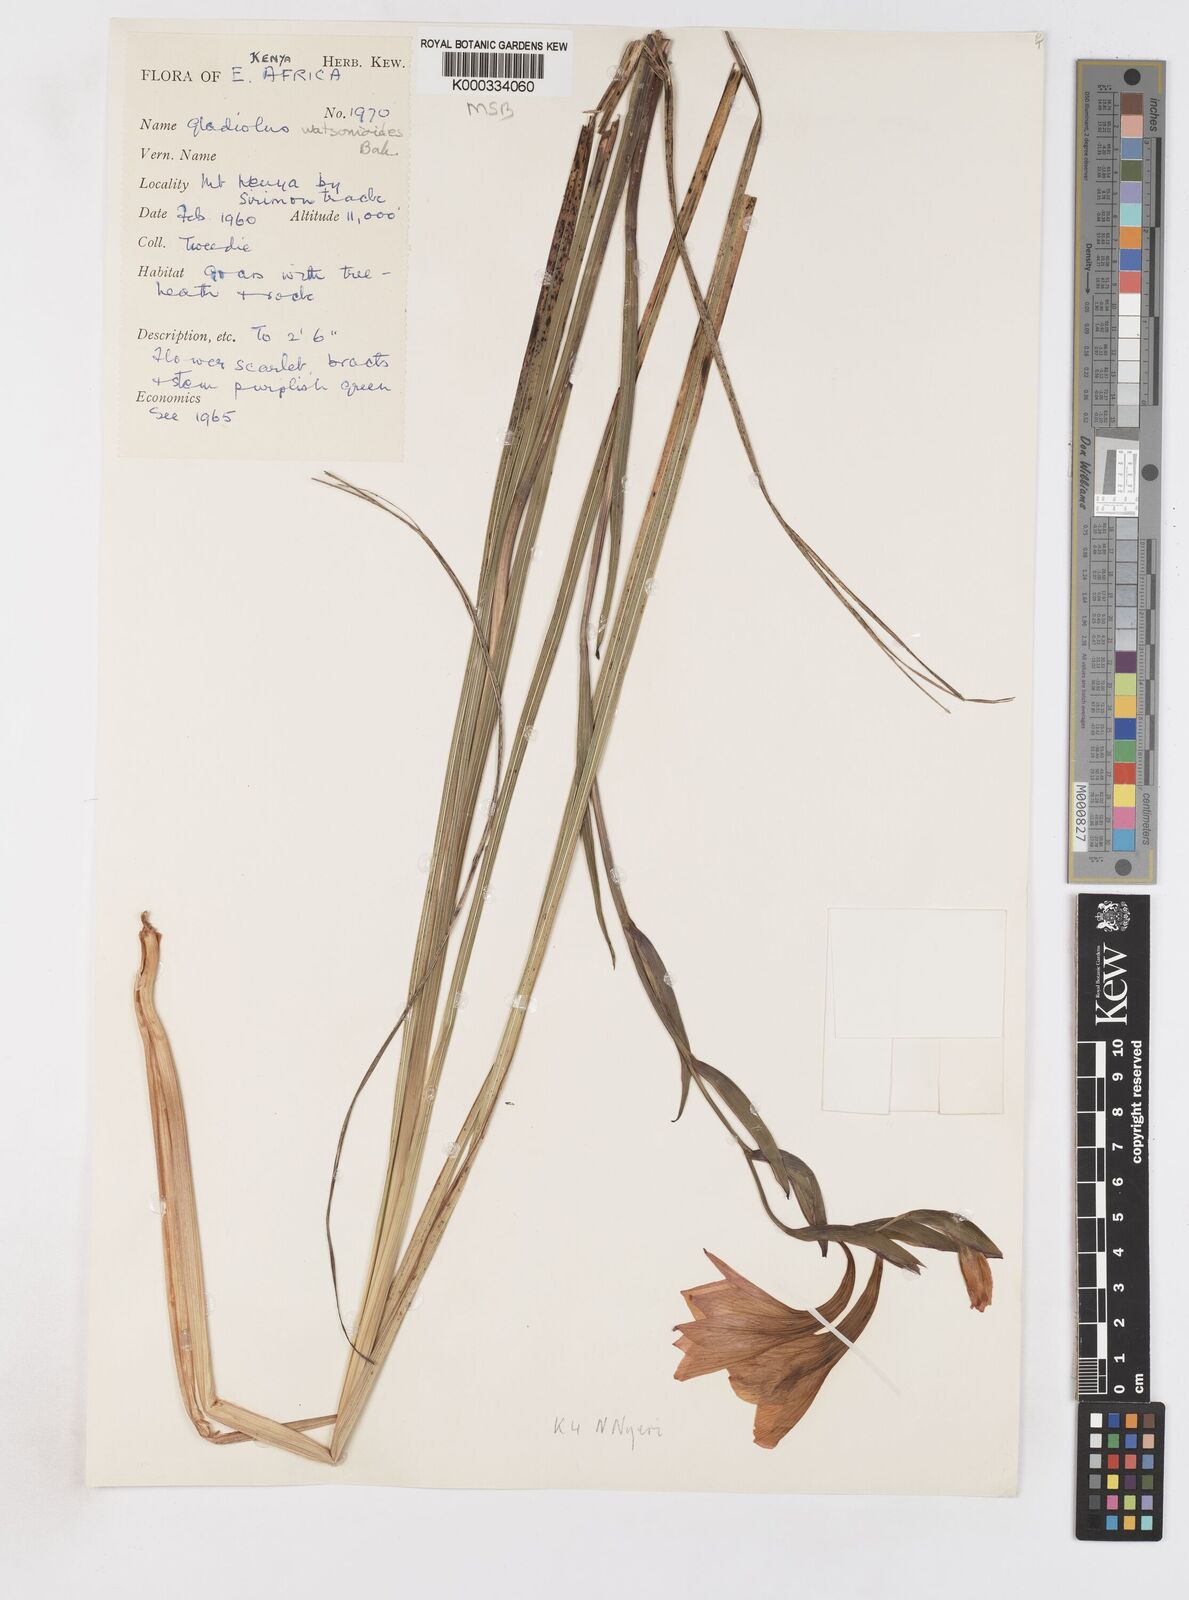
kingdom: Plantae
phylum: Tracheophyta
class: Liliopsida
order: Asparagales
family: Iridaceae
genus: Gladiolus
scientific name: Gladiolus watsonioides
